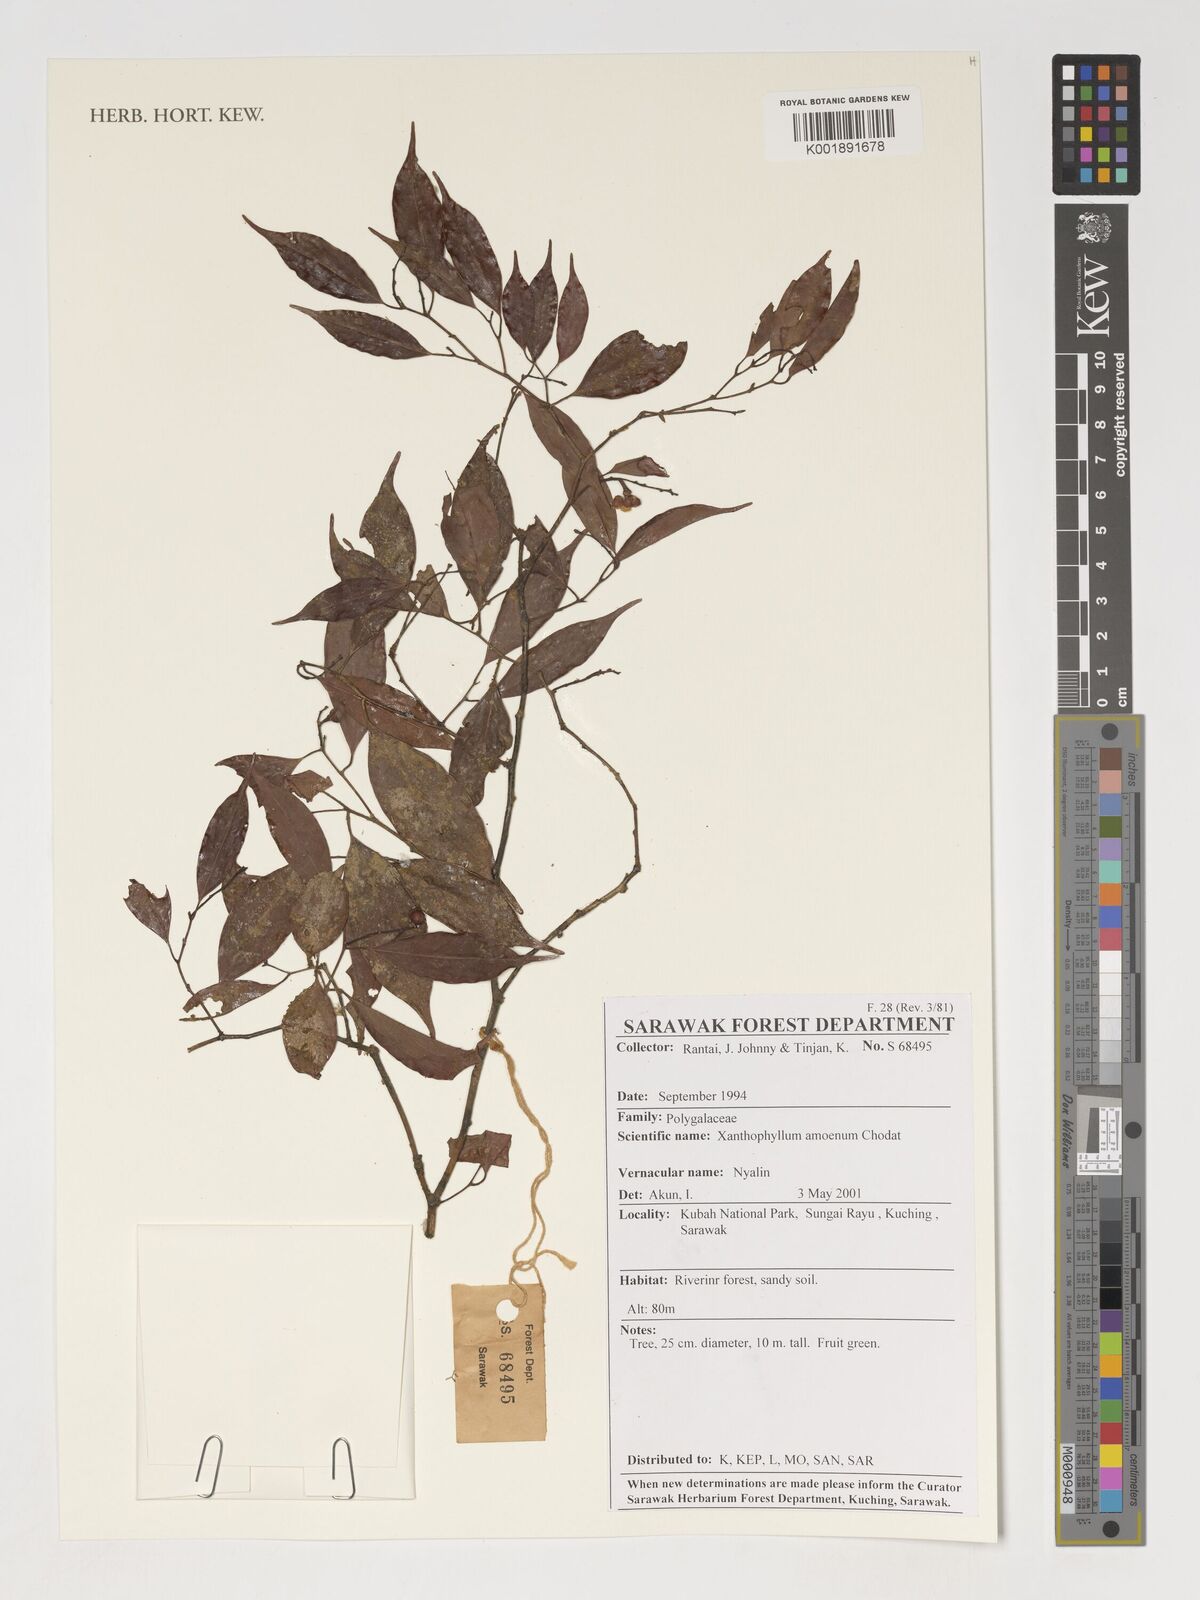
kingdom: Plantae
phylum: Tracheophyta
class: Magnoliopsida
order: Fabales
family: Polygalaceae
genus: Xanthophyllum
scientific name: Xanthophyllum stipitatum
